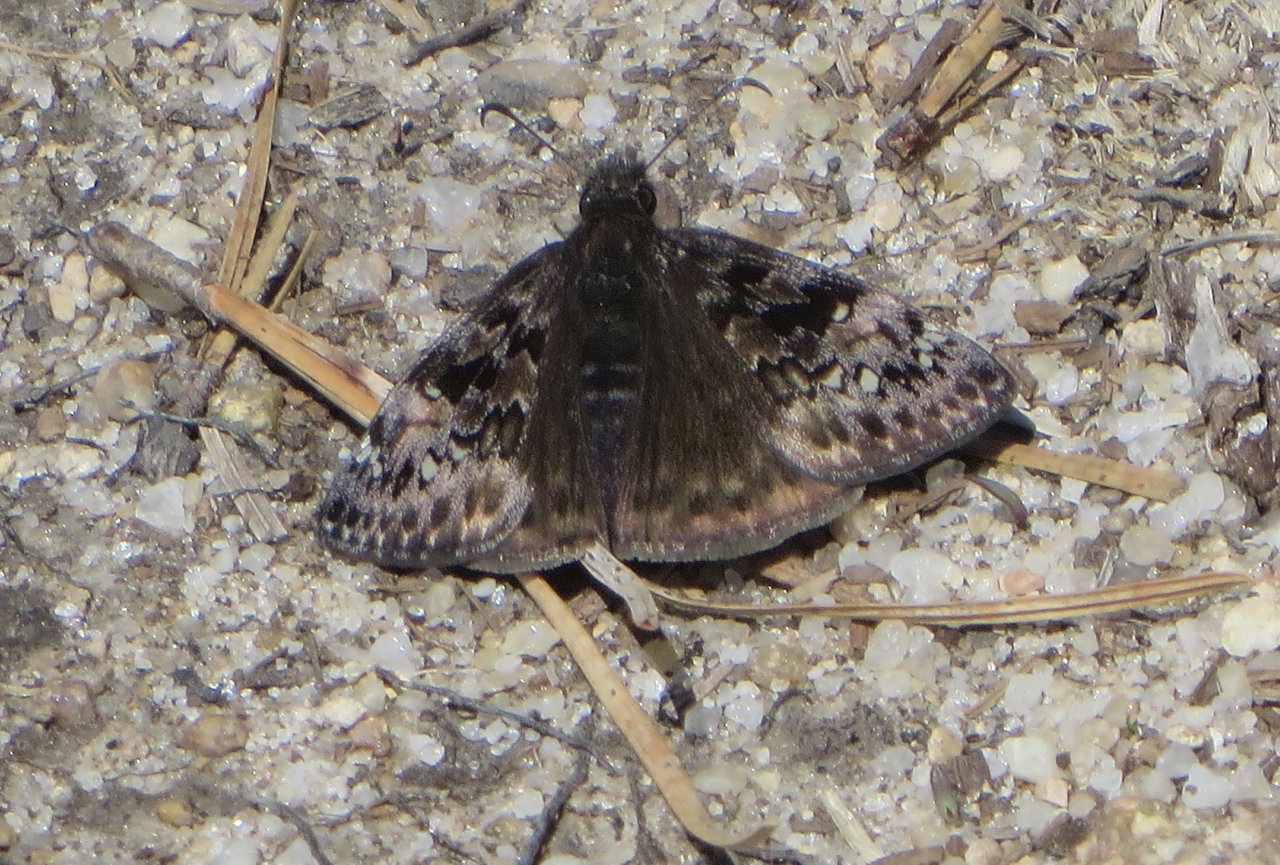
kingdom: Animalia
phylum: Arthropoda
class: Insecta
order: Lepidoptera
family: Hesperiidae
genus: Gesta
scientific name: Gesta
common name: Juvenal's Duskywing
